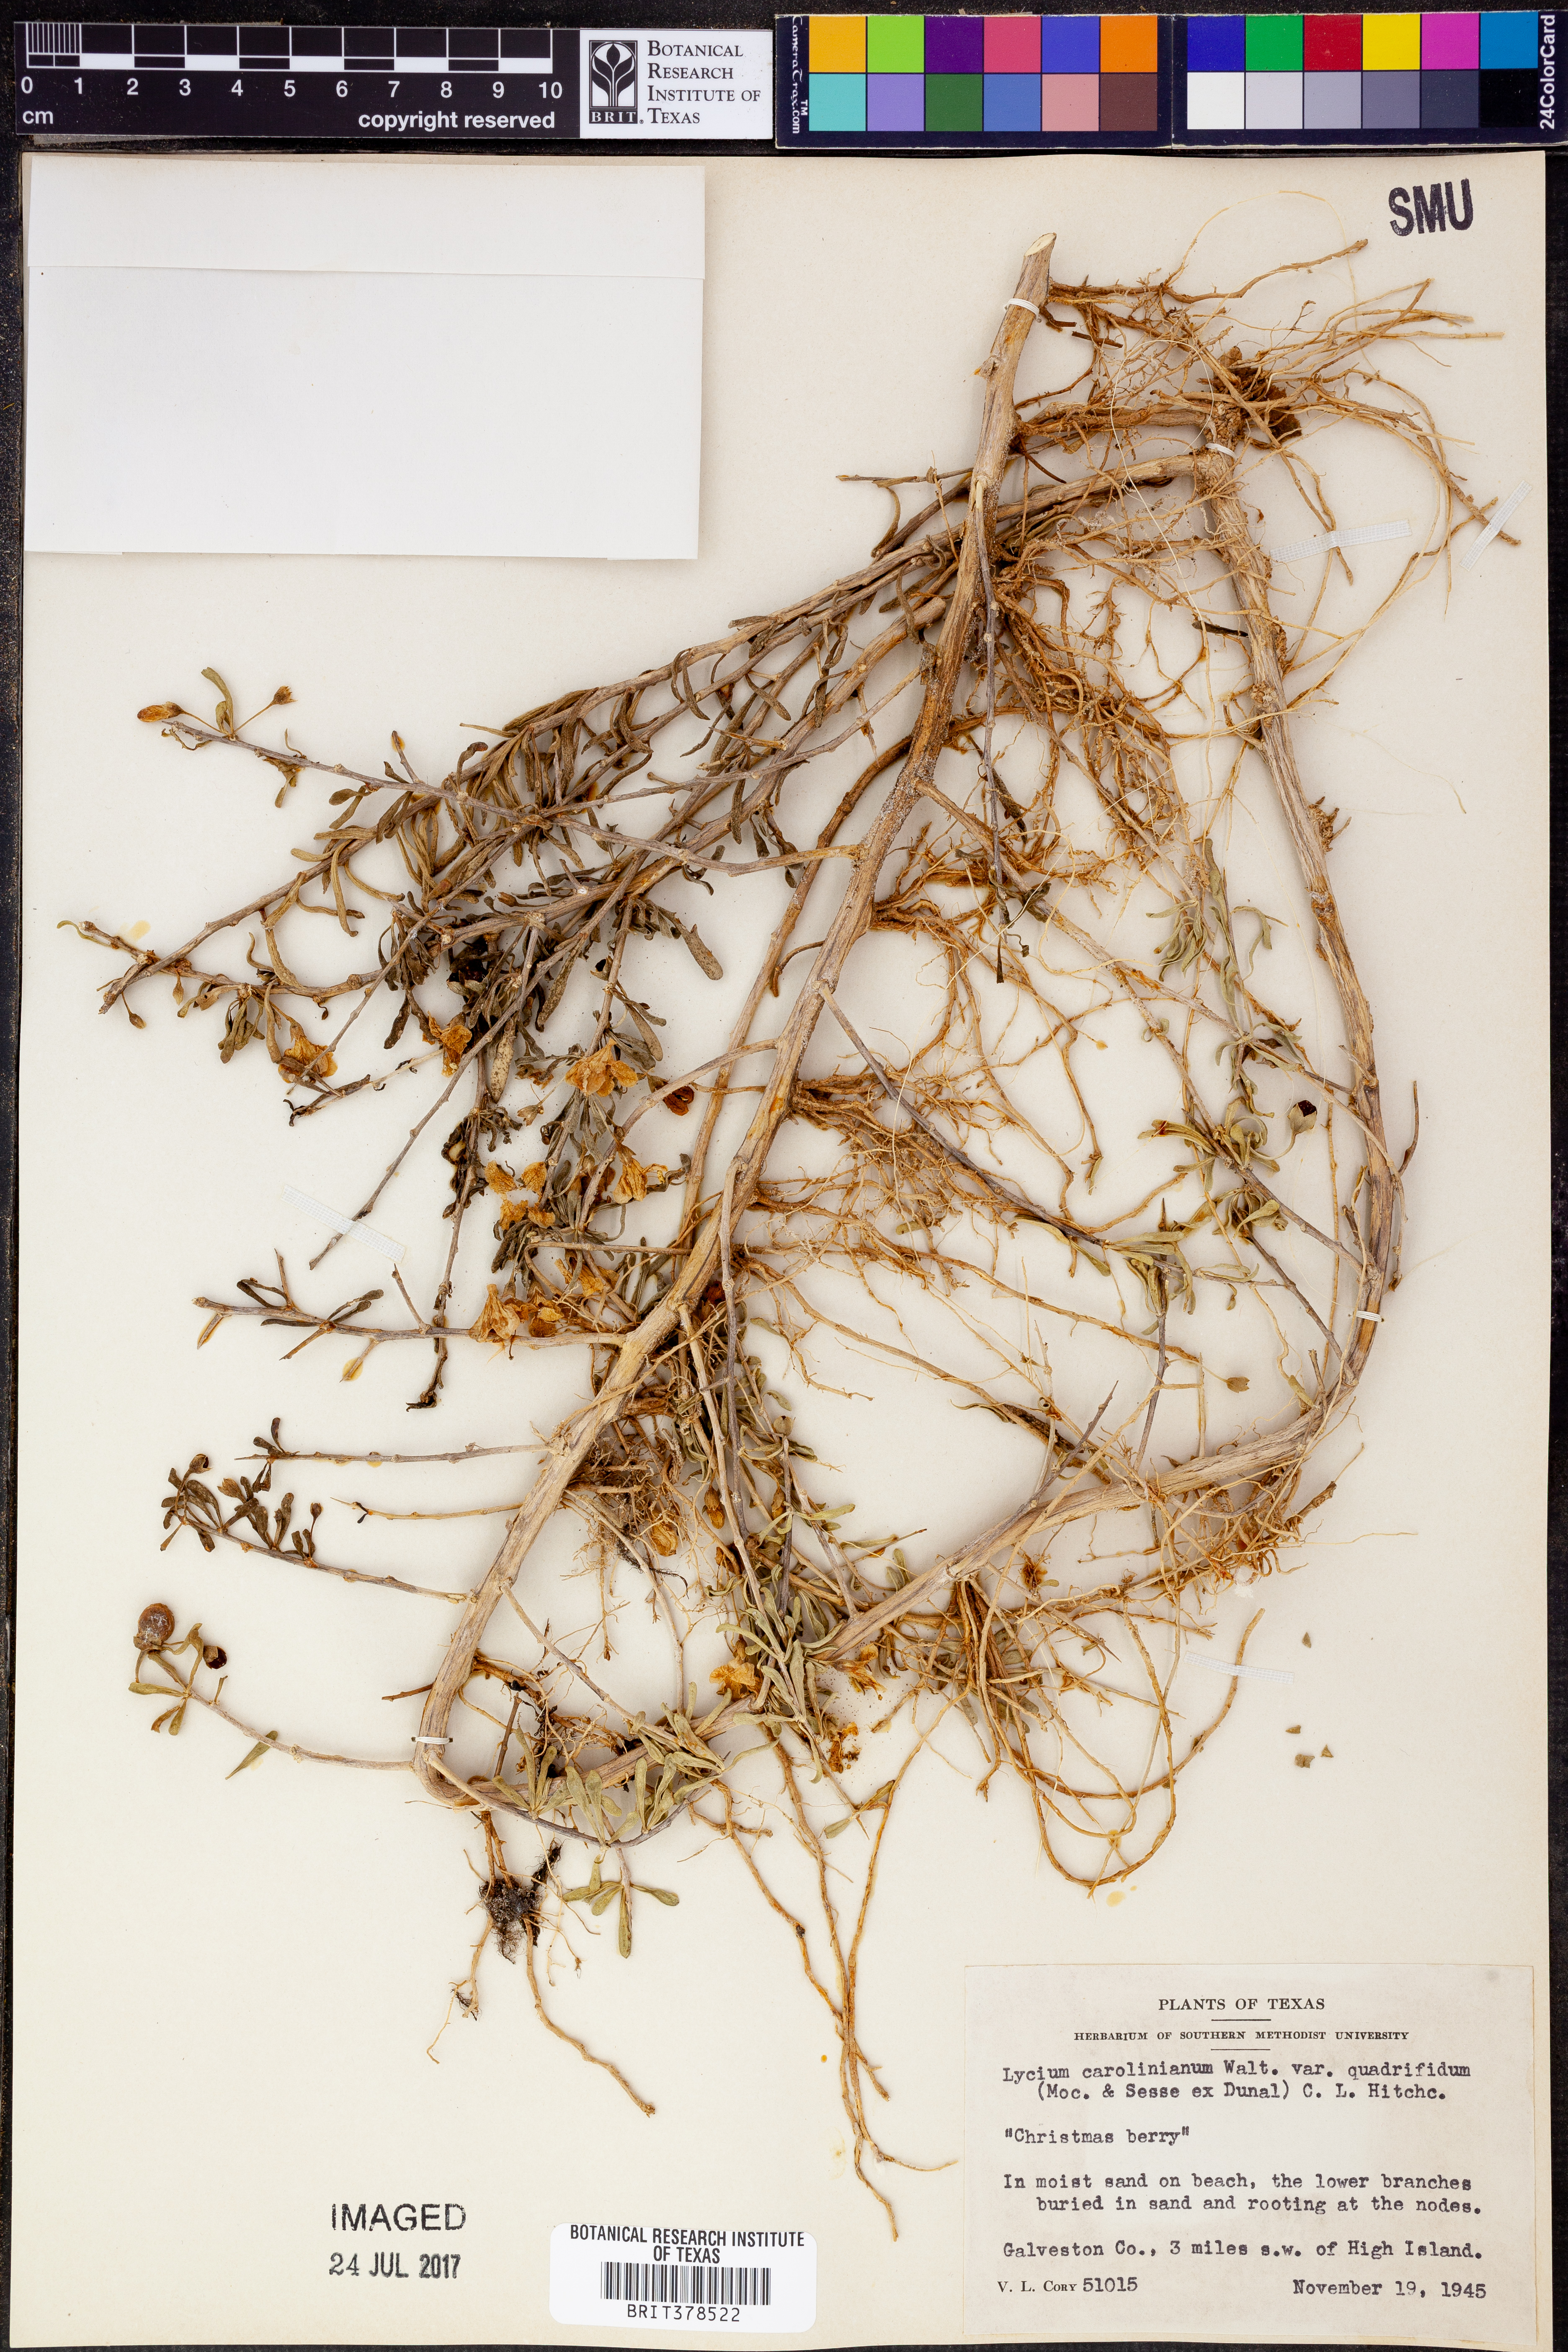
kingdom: Plantae
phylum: Tracheophyta
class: Magnoliopsida
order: Solanales
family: Solanaceae
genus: Lycium
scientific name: Lycium carolinianum
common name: Christmasberry
